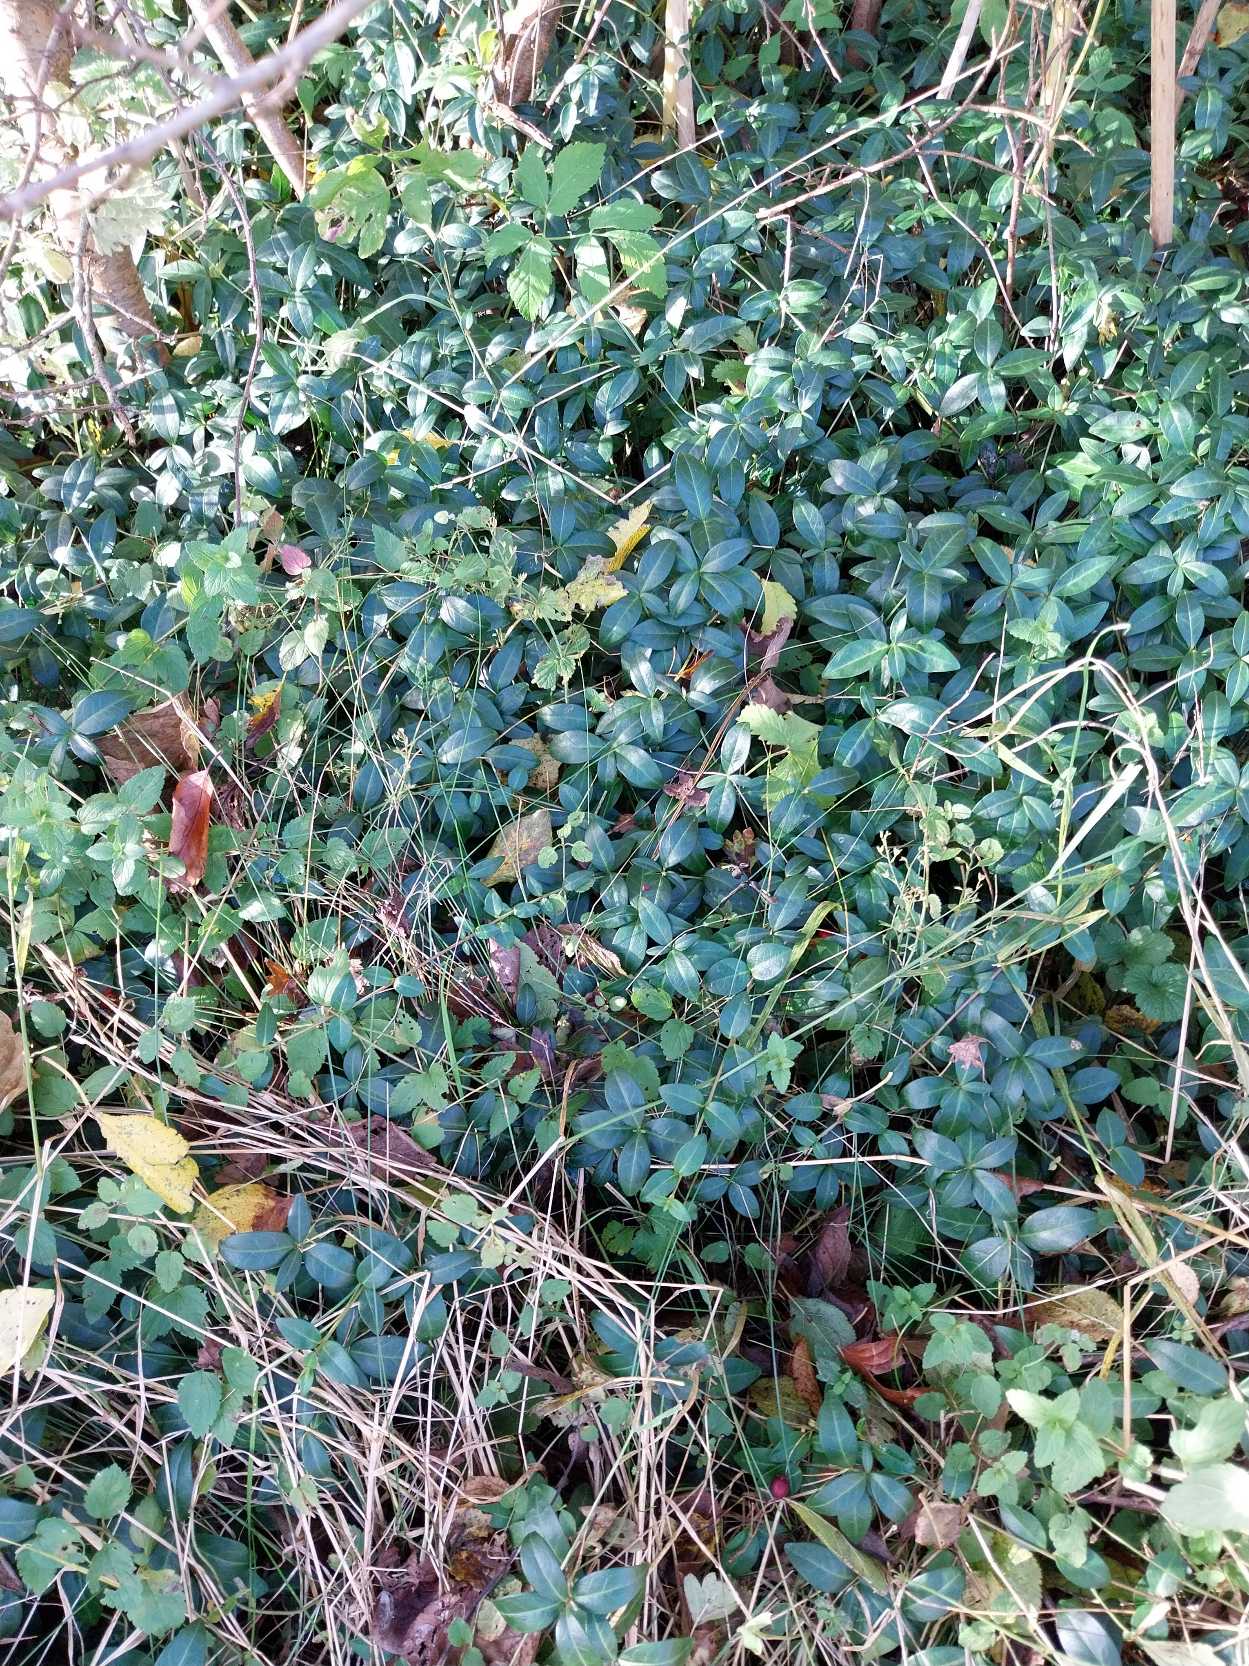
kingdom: Plantae
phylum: Tracheophyta
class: Magnoliopsida
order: Gentianales
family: Apocynaceae
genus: Vinca
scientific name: Vinca minor
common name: Liden singrøn
